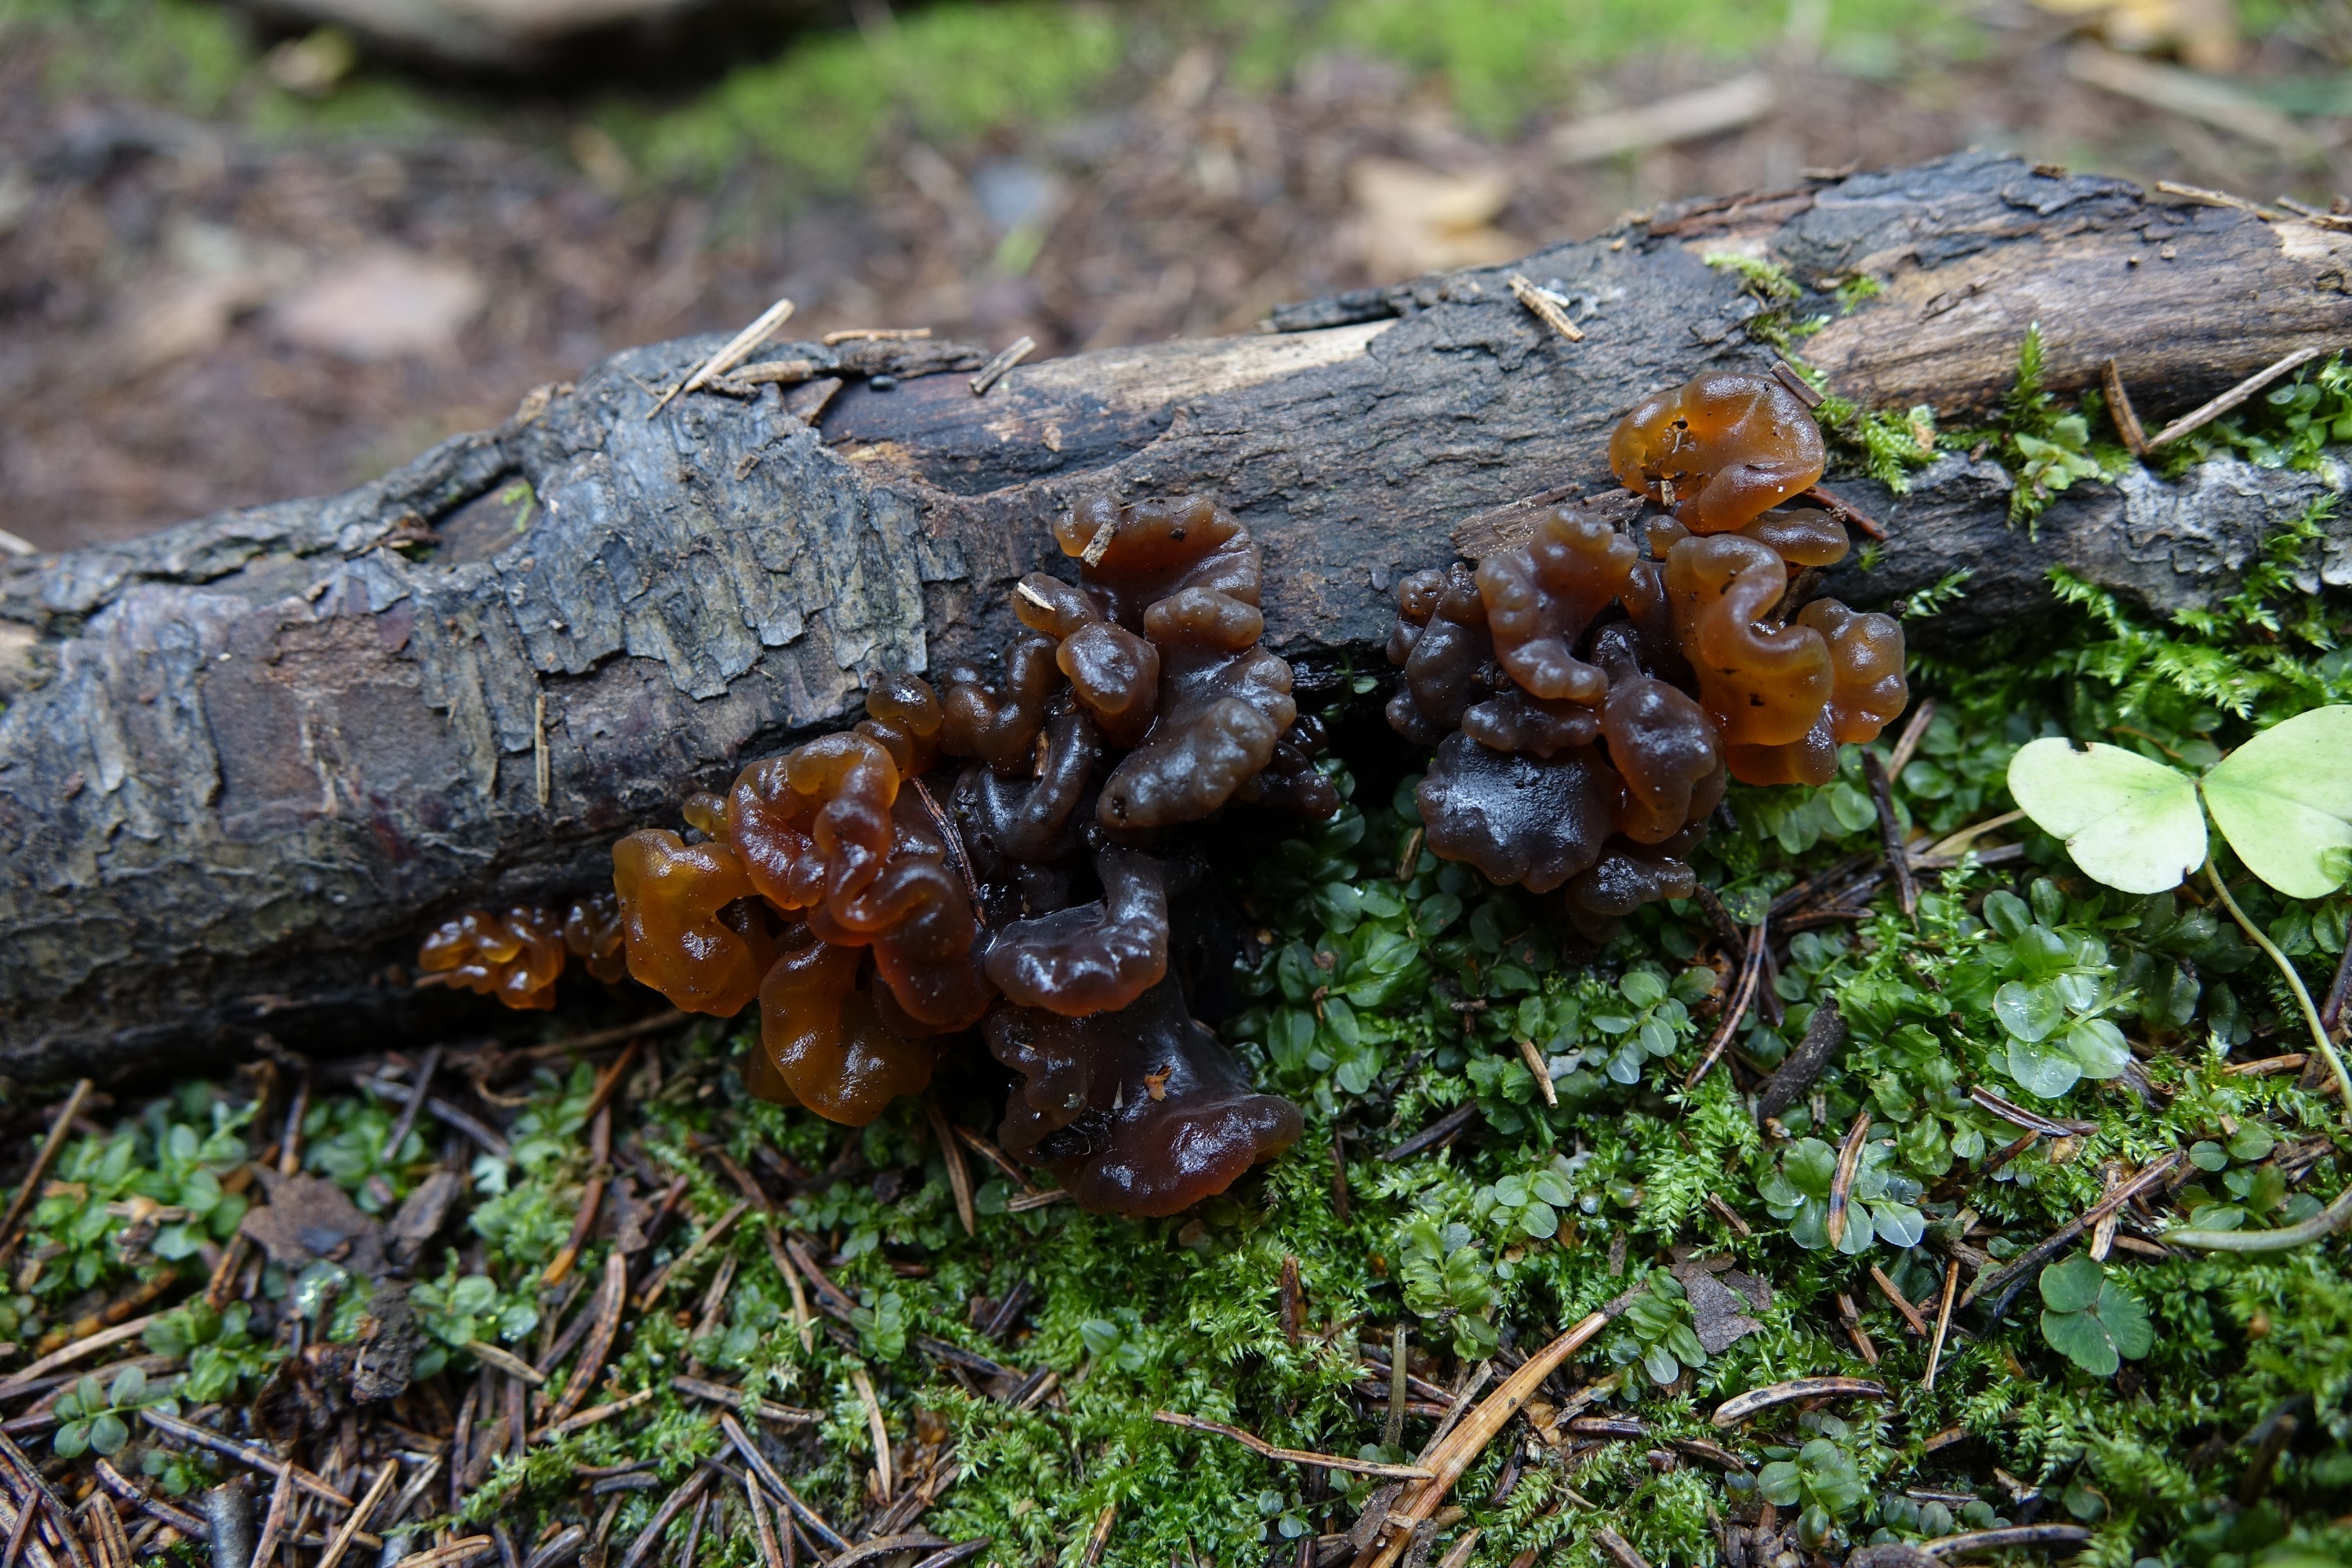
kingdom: Fungi
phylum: Basidiomycota
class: Tremellomycetes
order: Tremellales
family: Tremellaceae
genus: Phaeotremella
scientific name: Phaeotremella fimbriata
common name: Brown witch's butter
